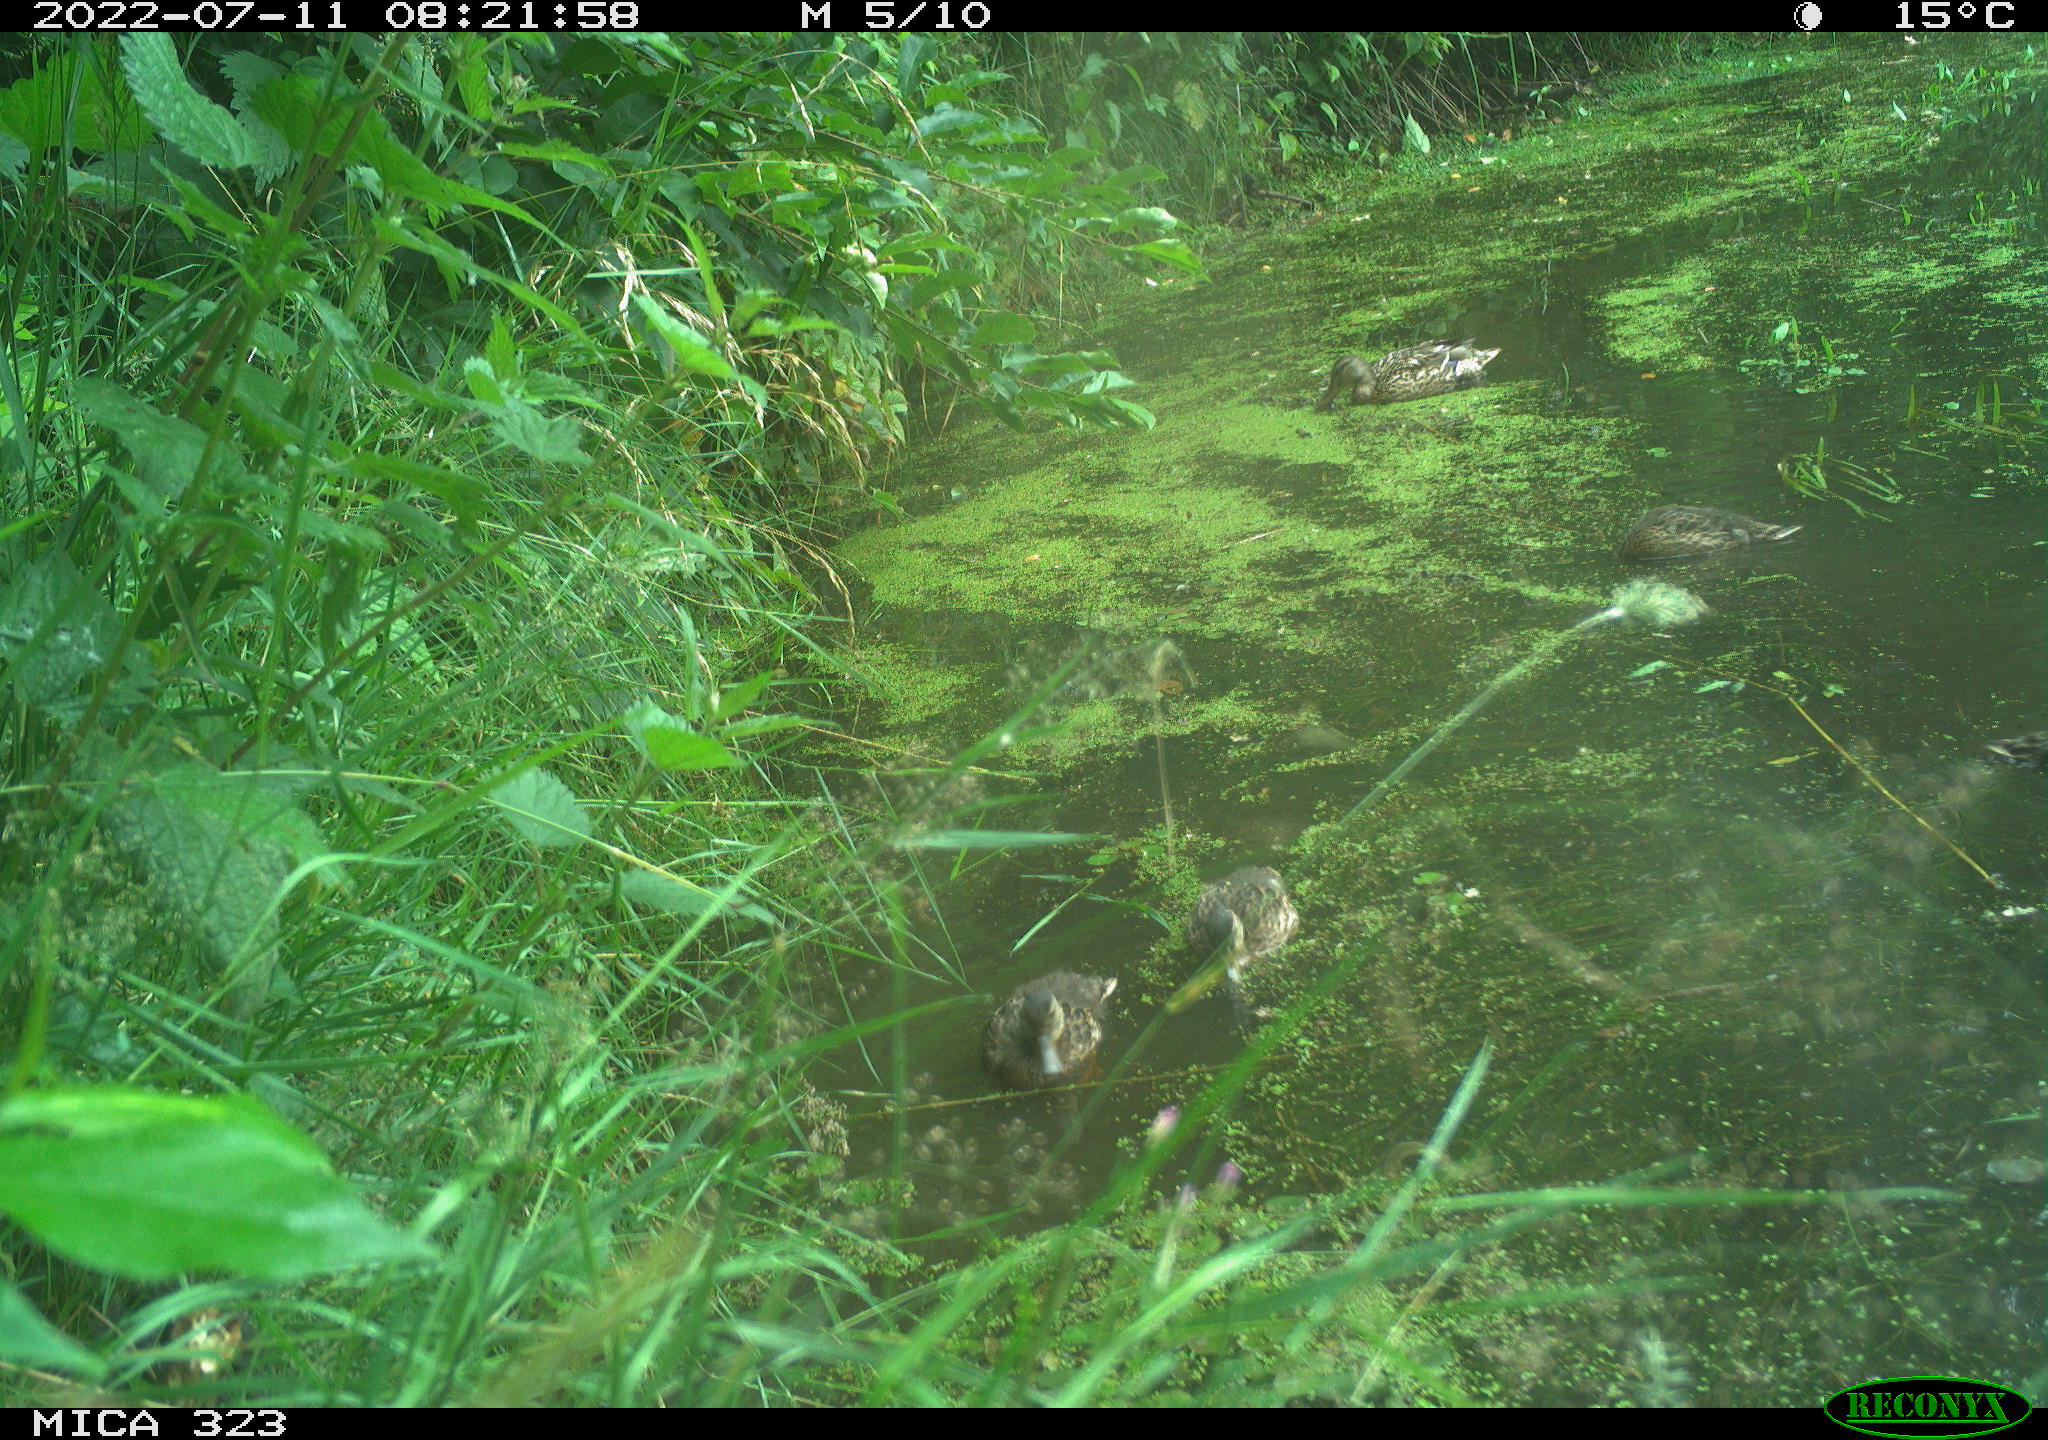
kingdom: Animalia
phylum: Chordata
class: Aves
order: Anseriformes
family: Anatidae
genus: Anas
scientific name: Anas platyrhynchos
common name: Mallard
